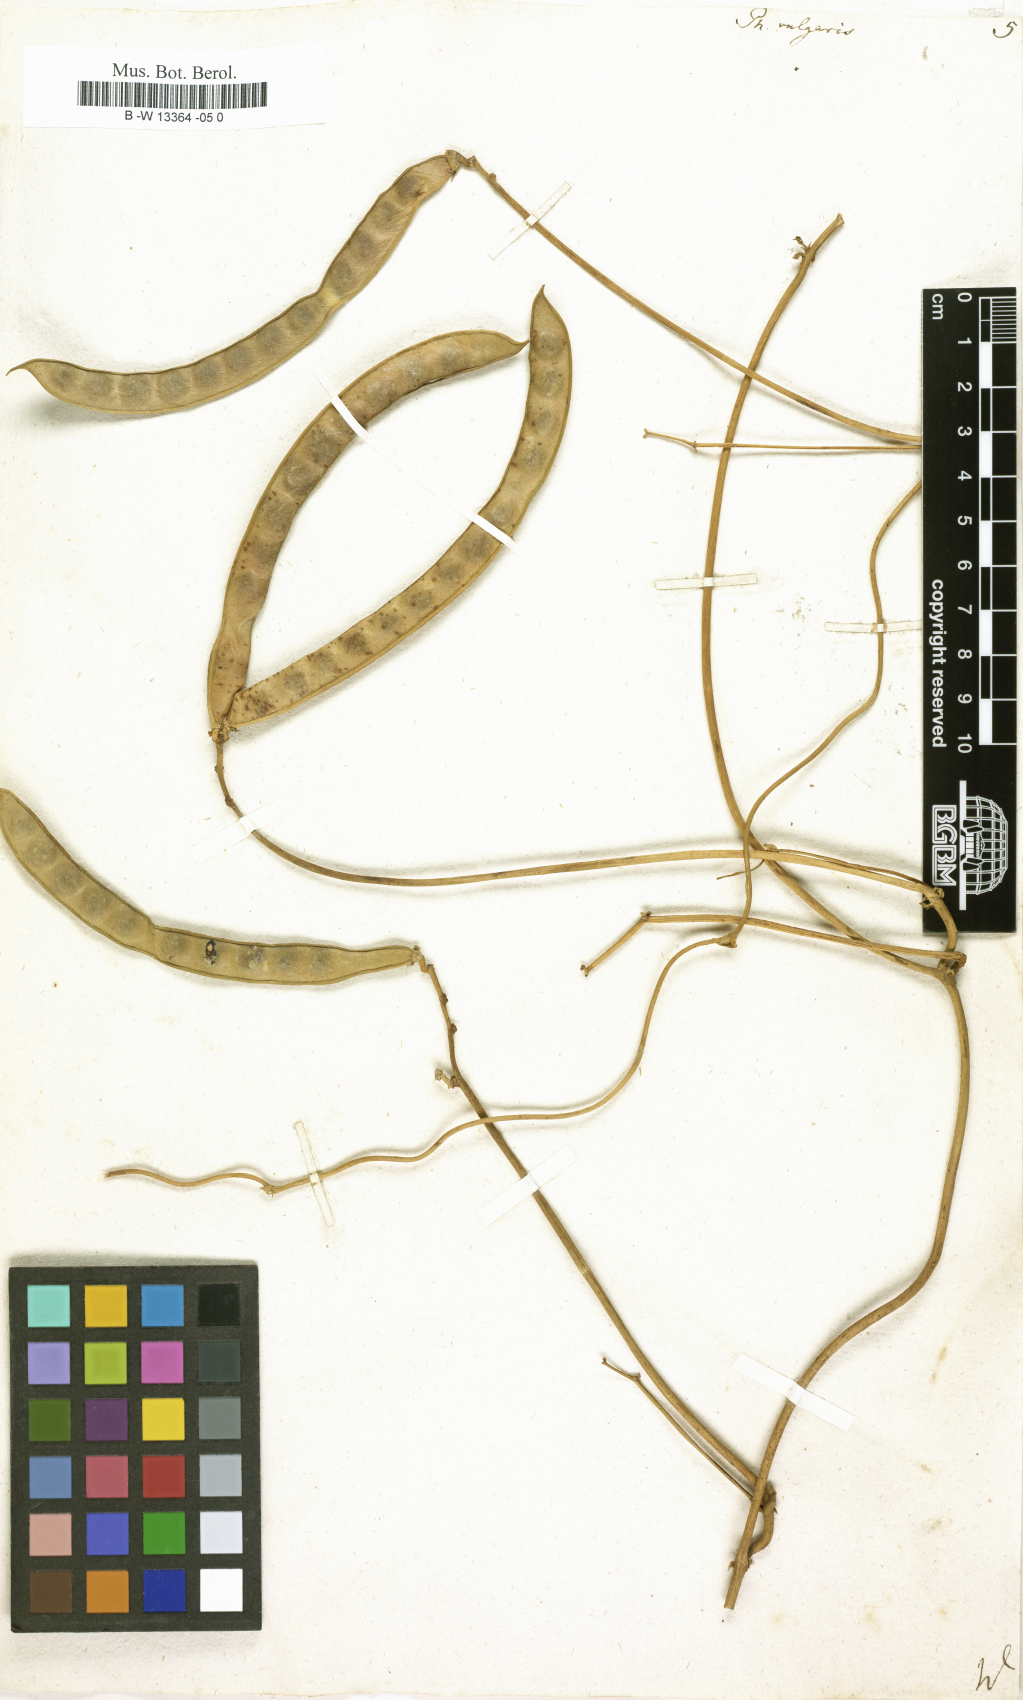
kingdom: Plantae
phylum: Tracheophyta
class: Magnoliopsida
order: Fabales
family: Fabaceae
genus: Phaseolus
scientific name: Phaseolus vulgaris
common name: Bean
